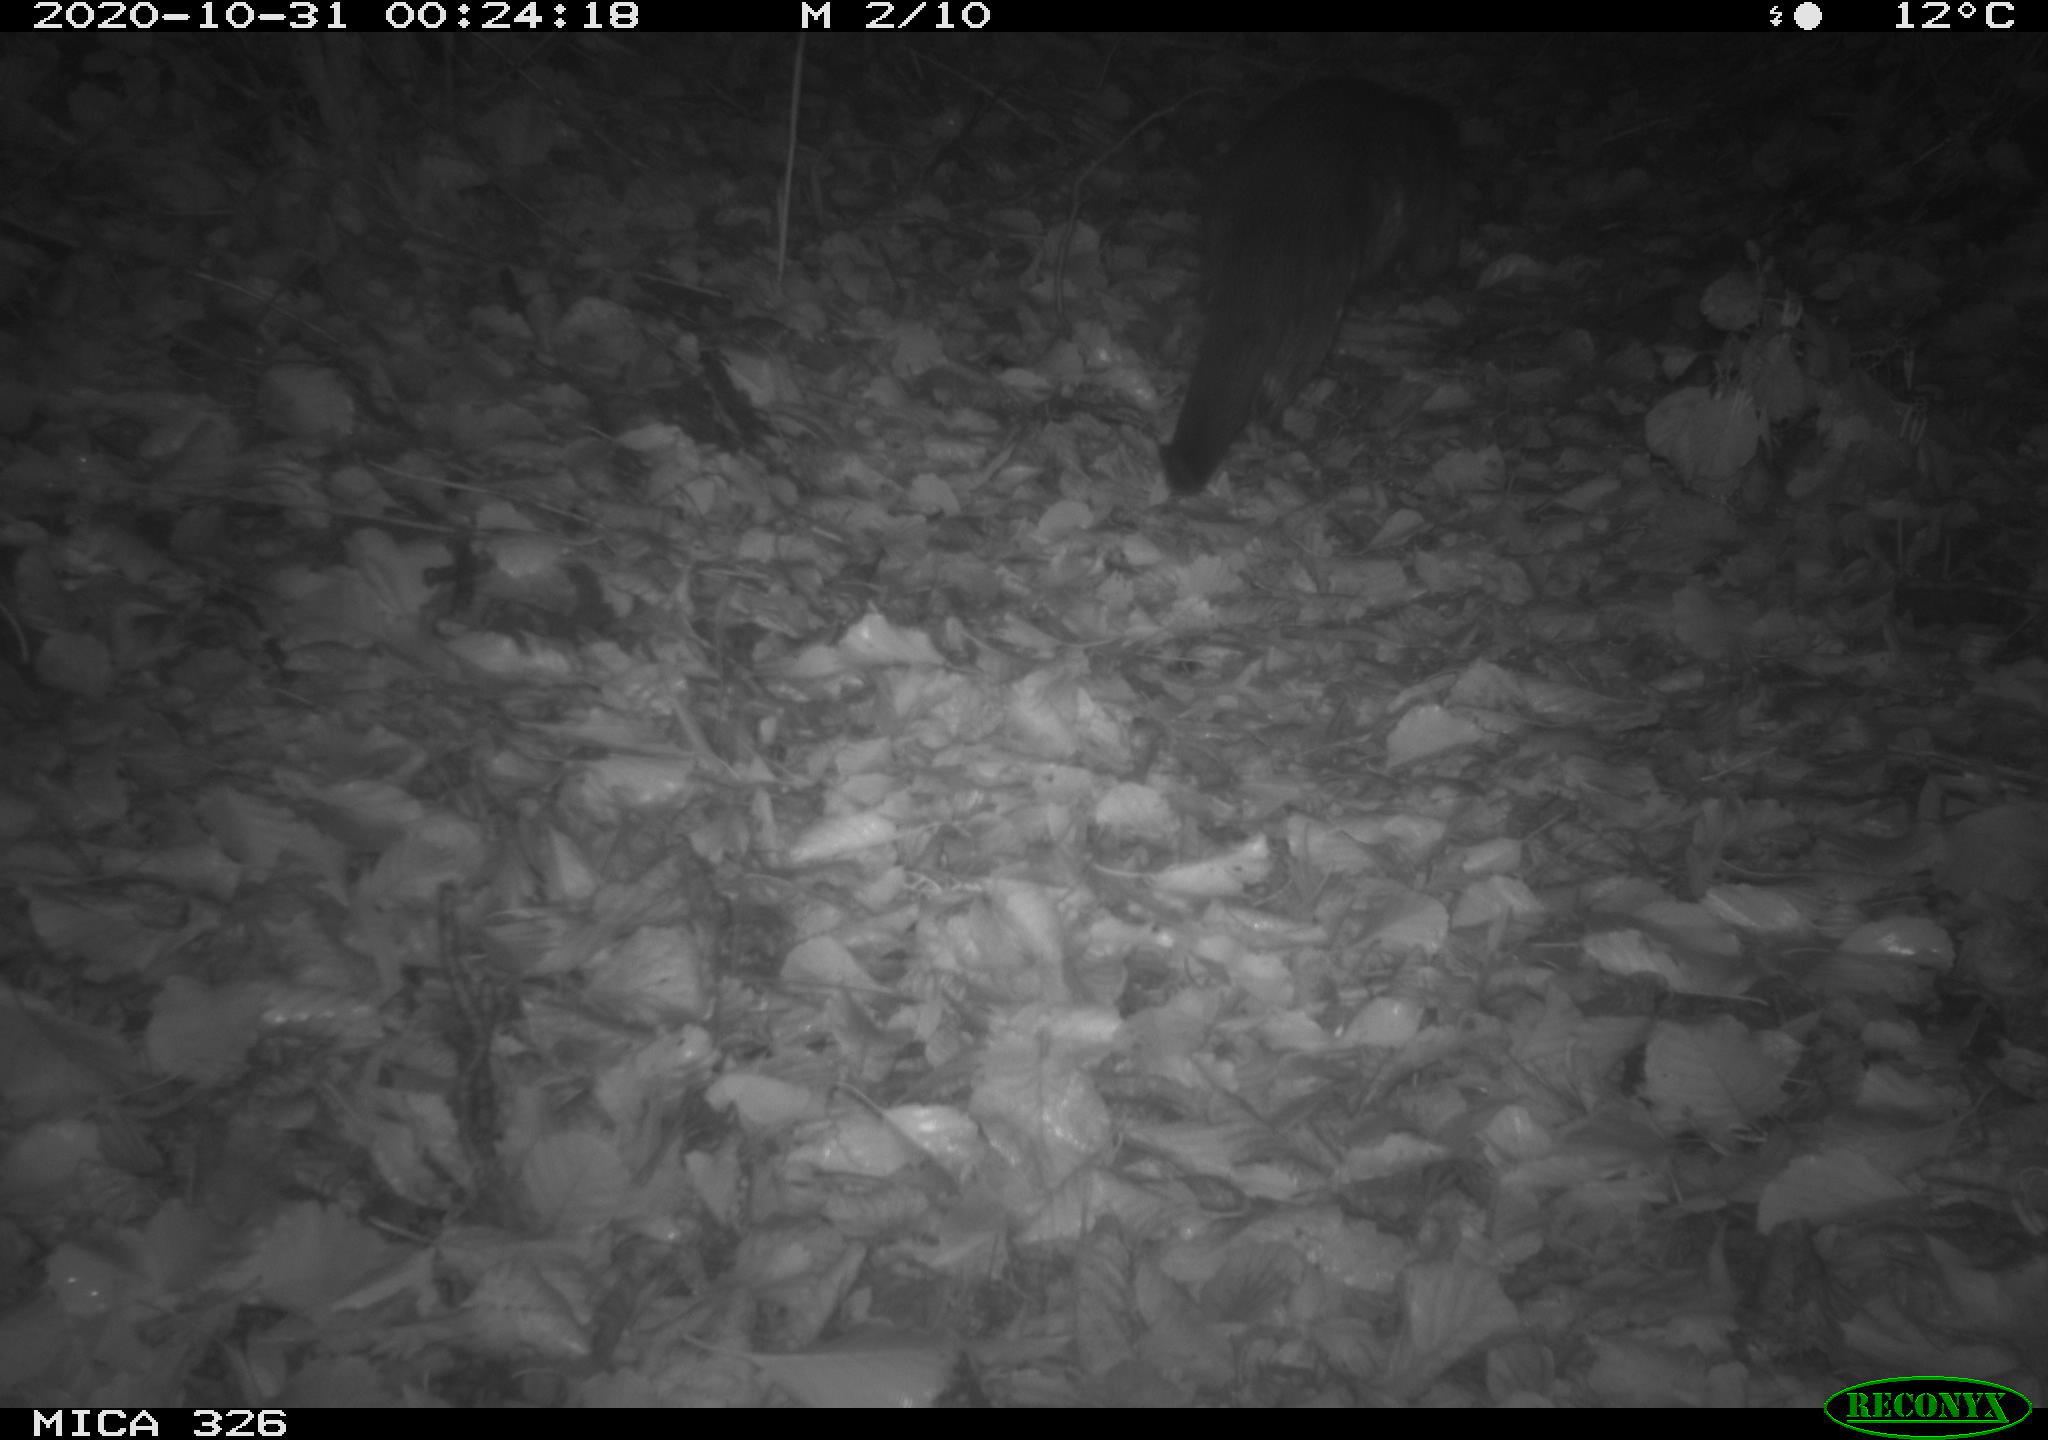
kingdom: Animalia
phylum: Chordata
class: Mammalia
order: Carnivora
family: Mustelidae
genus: Lutra
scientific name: Lutra lutra
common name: European otter
